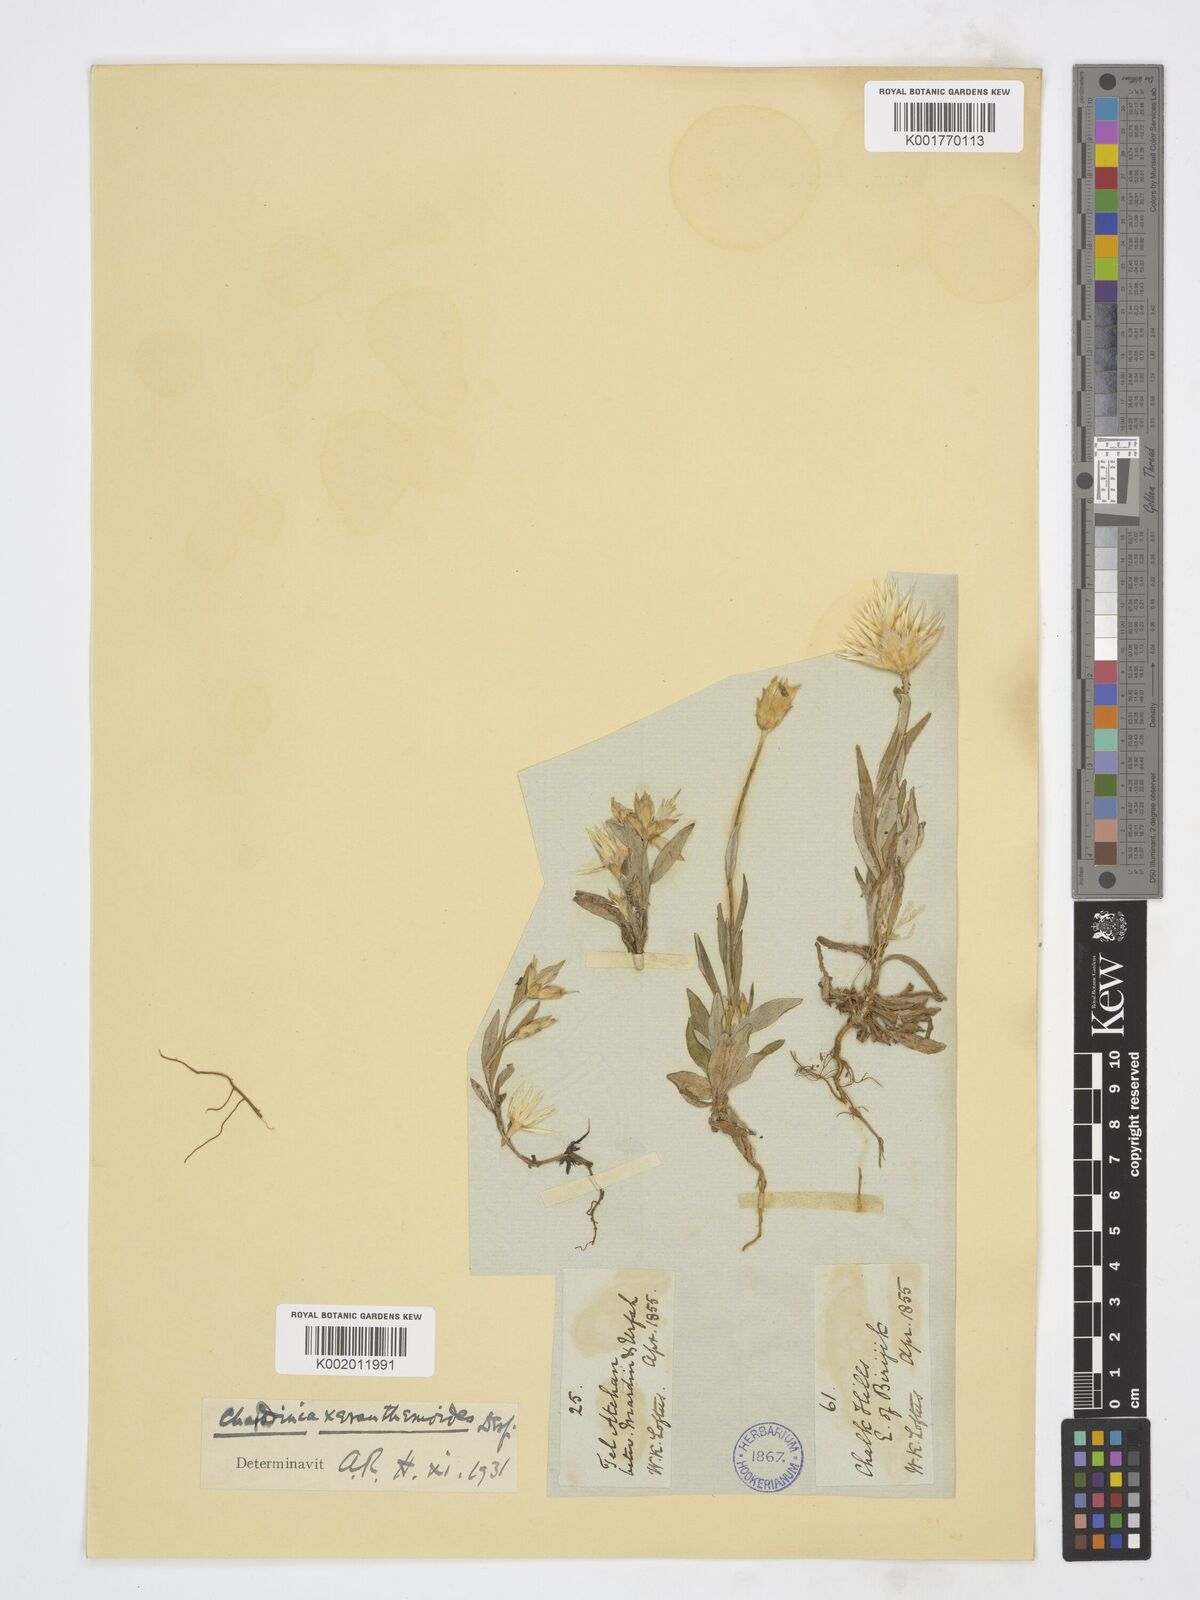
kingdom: Plantae
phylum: Tracheophyta
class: Magnoliopsida
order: Asterales
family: Asteraceae
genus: Chardinia
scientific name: Chardinia orientalis
